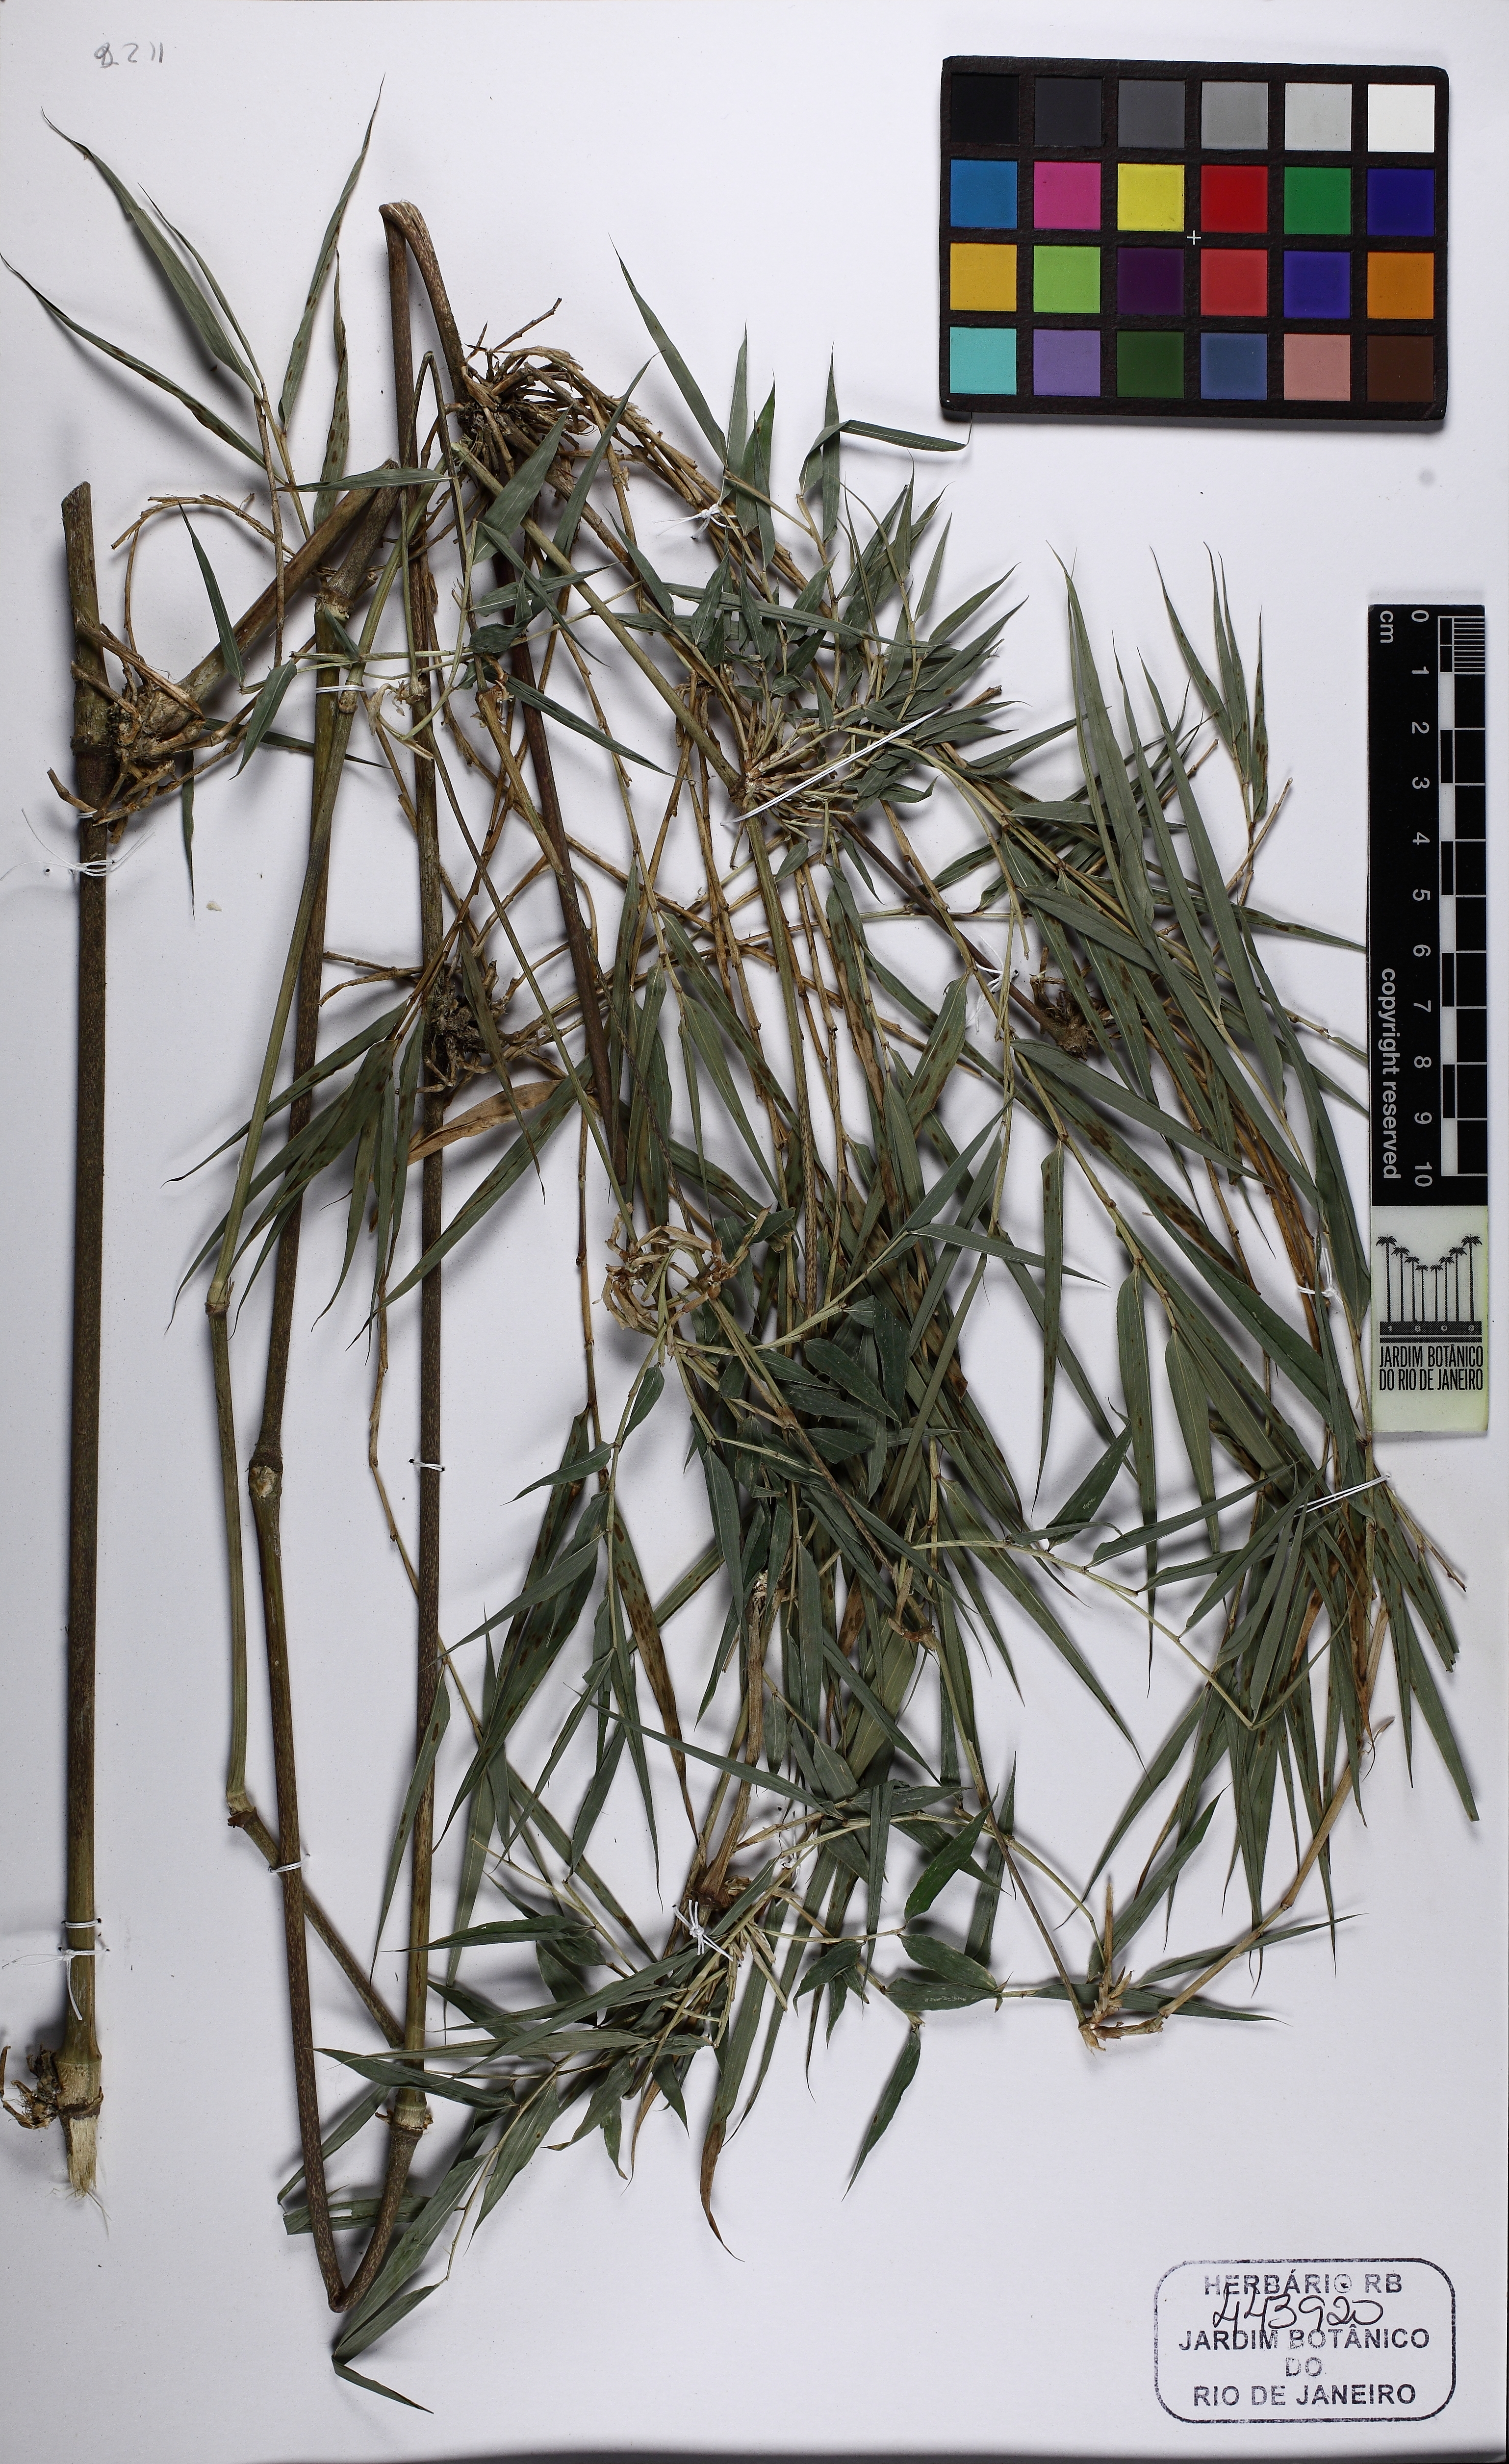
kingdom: Plantae
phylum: Tracheophyta
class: Liliopsida
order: Poales
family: Poaceae
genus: Chusquea
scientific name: Chusquea
